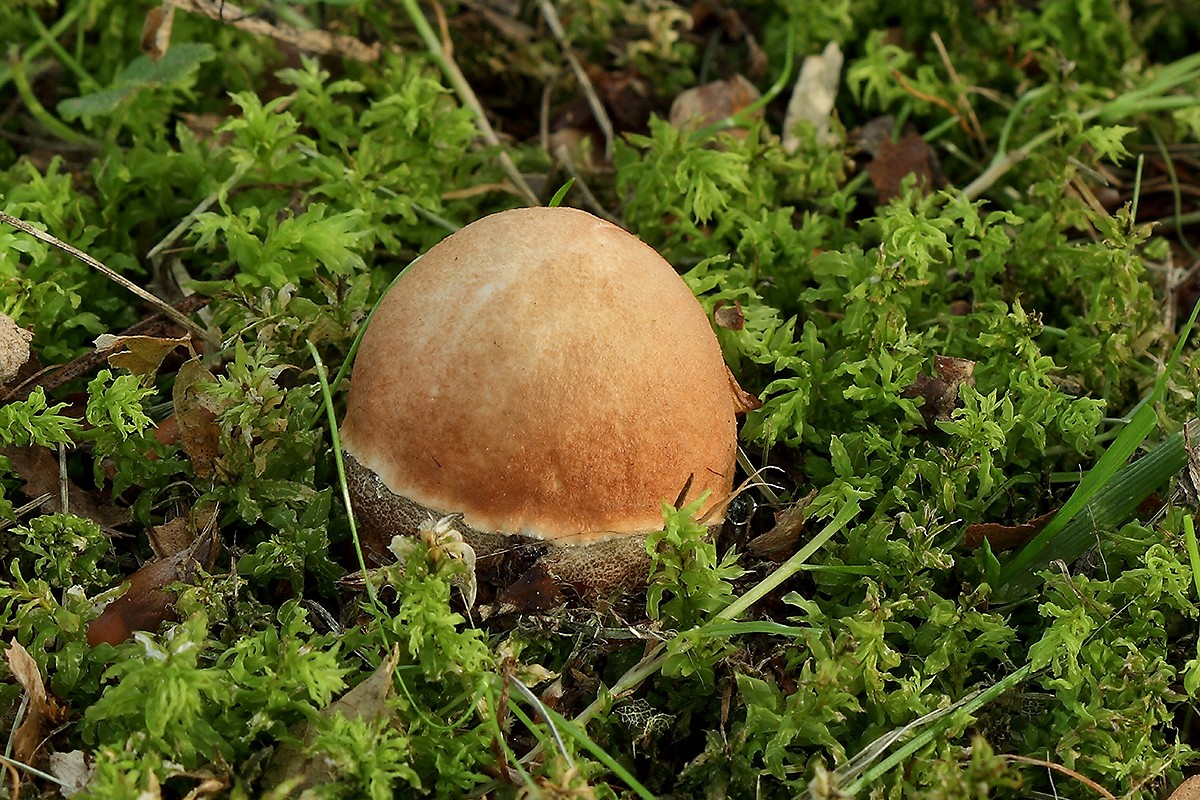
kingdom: Fungi
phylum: Basidiomycota
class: Agaricomycetes
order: Boletales
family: Boletaceae
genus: Leccinum
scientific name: Leccinum aurantiacum
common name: rustrød skælrørhat
